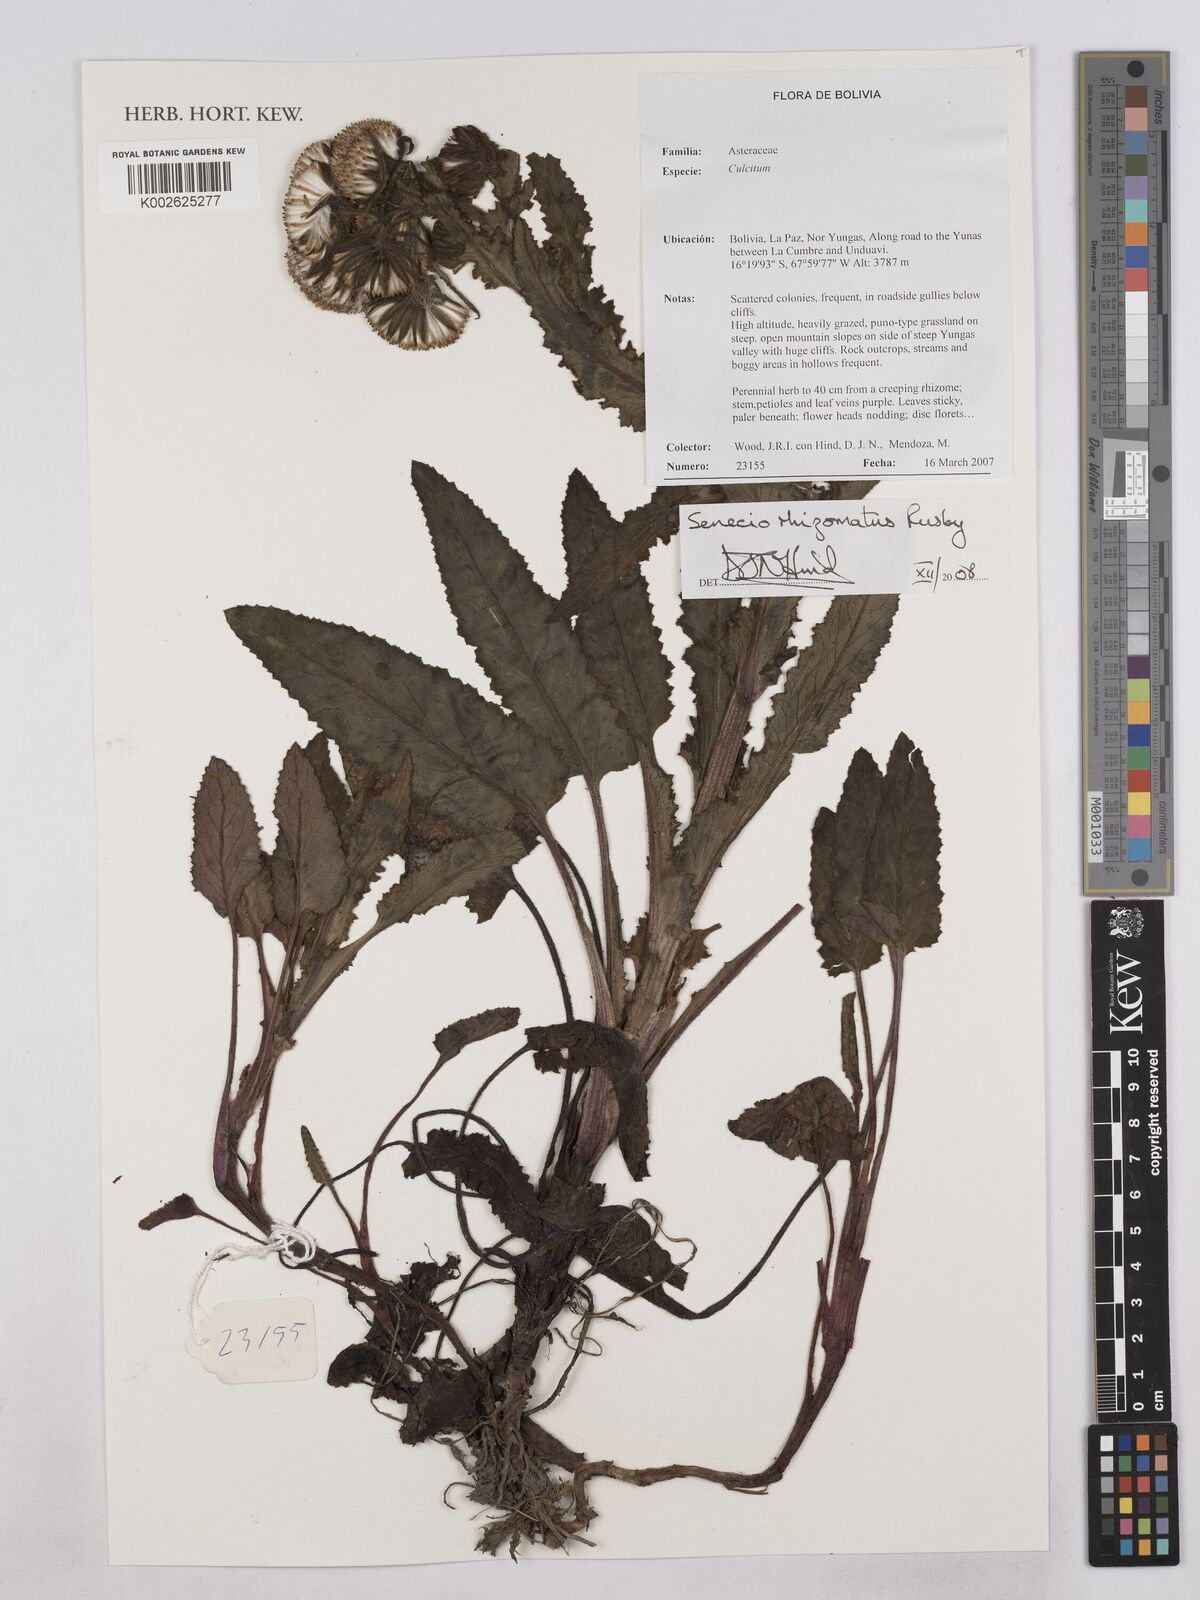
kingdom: Plantae
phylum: Tracheophyta
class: Magnoliopsida
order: Asterales
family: Asteraceae
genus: Senecio
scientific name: Senecio rhizomatus
